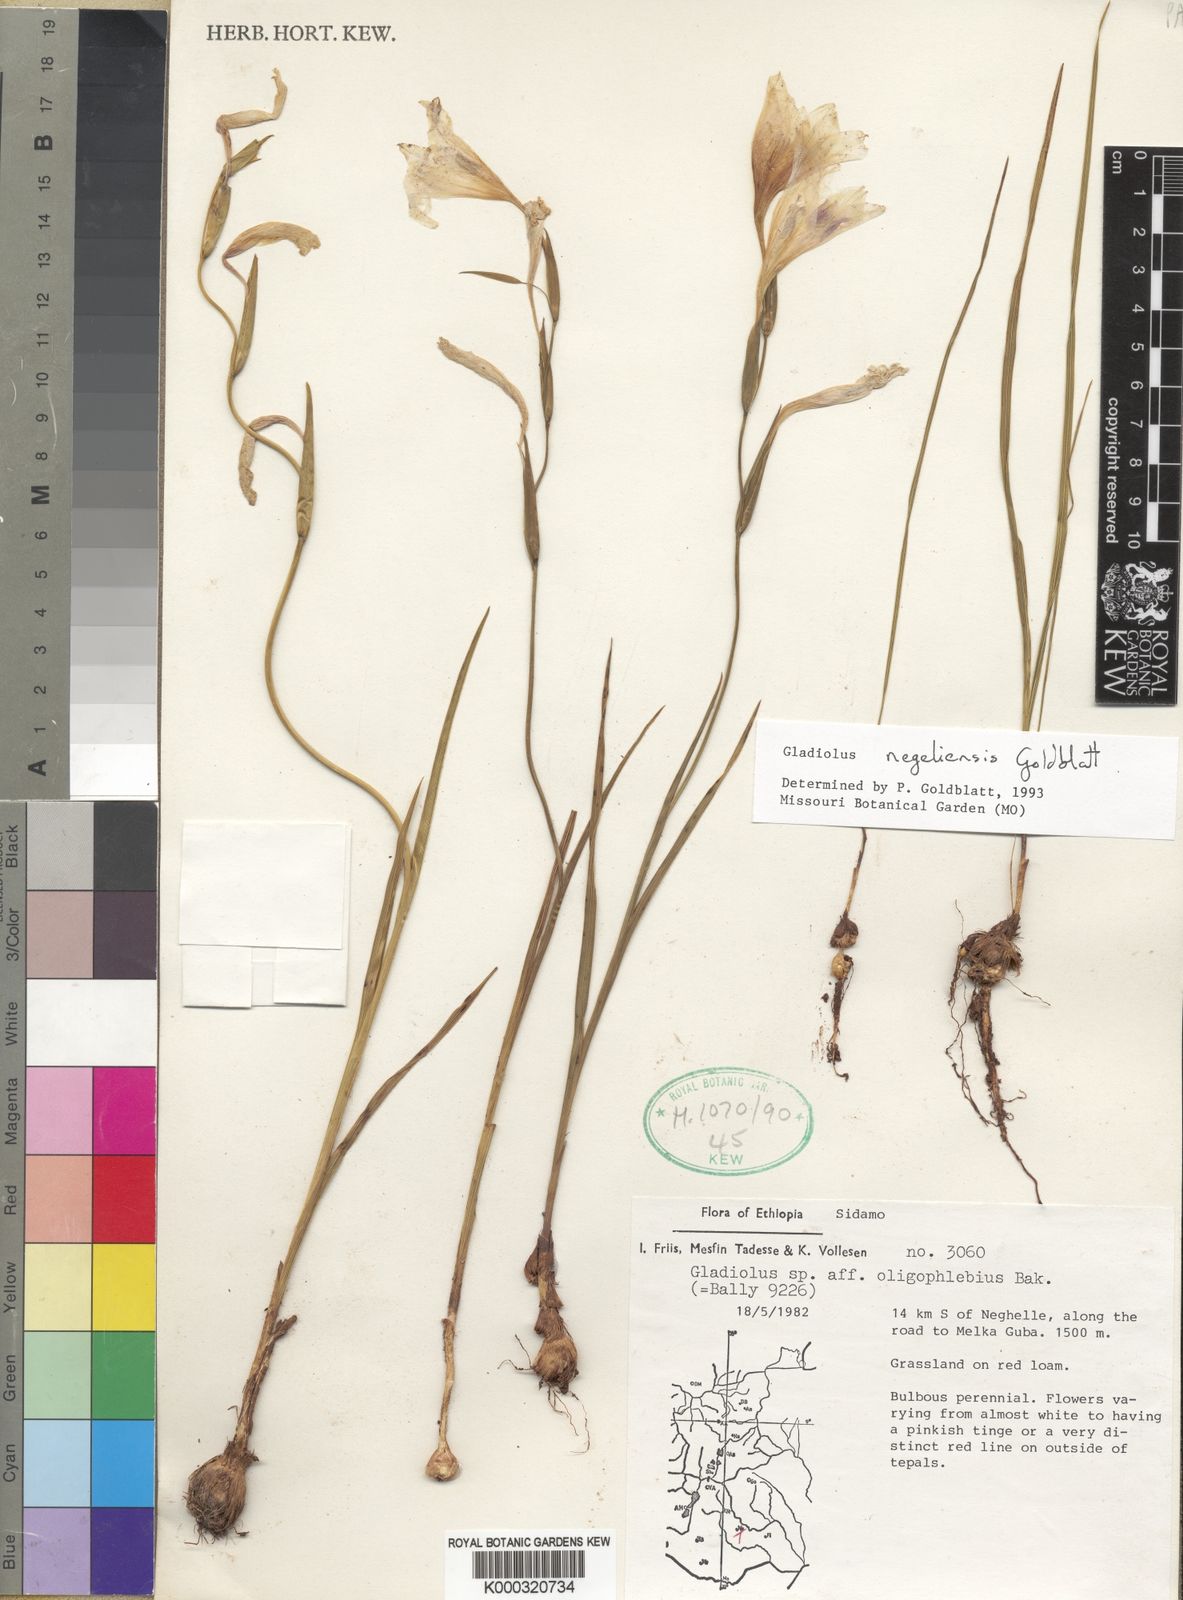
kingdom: Plantae
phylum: Tracheophyta
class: Liliopsida
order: Asparagales
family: Iridaceae
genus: Gladiolus
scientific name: Gladiolus negeliensis
